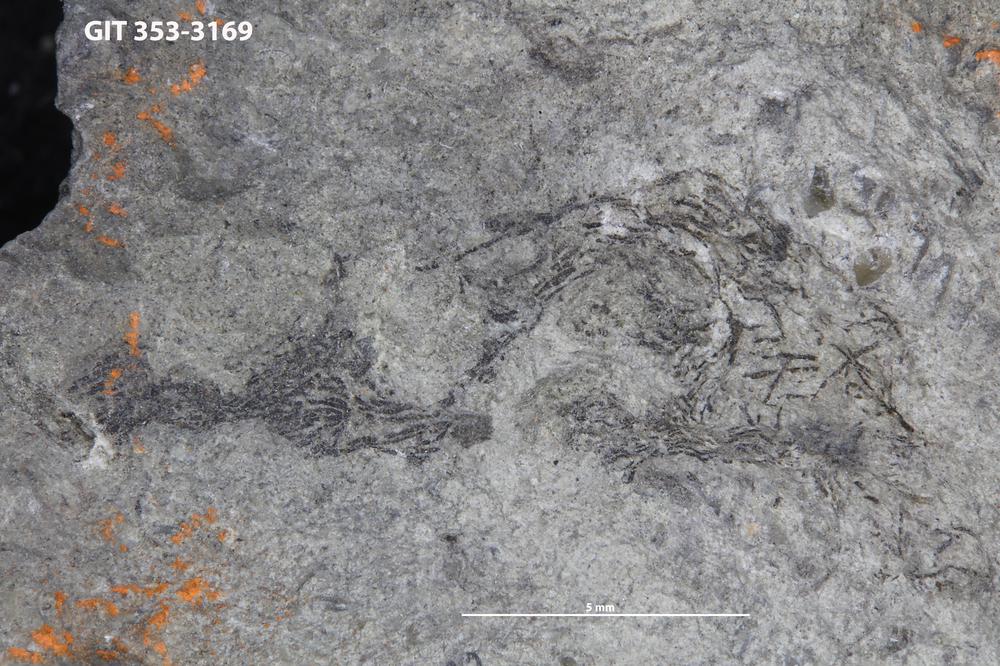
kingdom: Animalia
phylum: Hemichordata
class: Pterobranchia
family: Dendrograptidae
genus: Dendrograptus
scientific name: Dendrograptus
